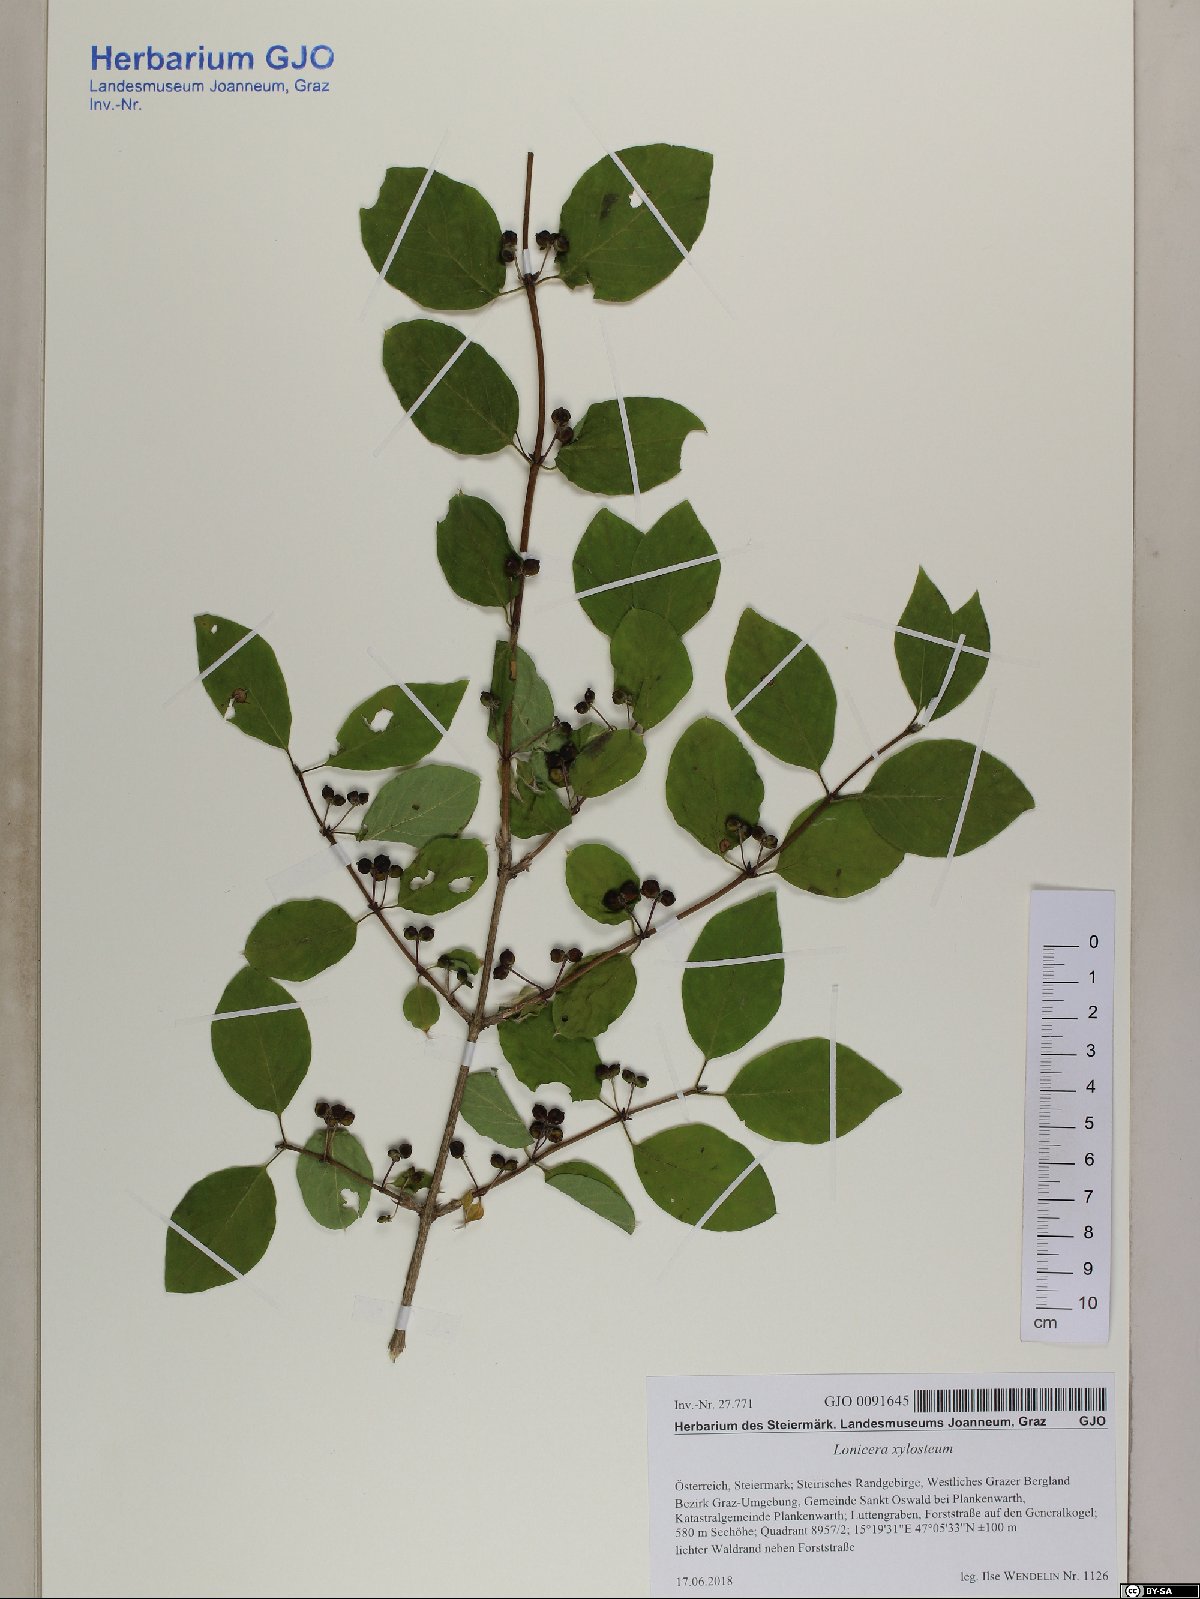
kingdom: Plantae
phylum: Tracheophyta
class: Magnoliopsida
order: Dipsacales
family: Caprifoliaceae
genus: Lonicera
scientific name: Lonicera xylosteum
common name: Fly honeysuckle
